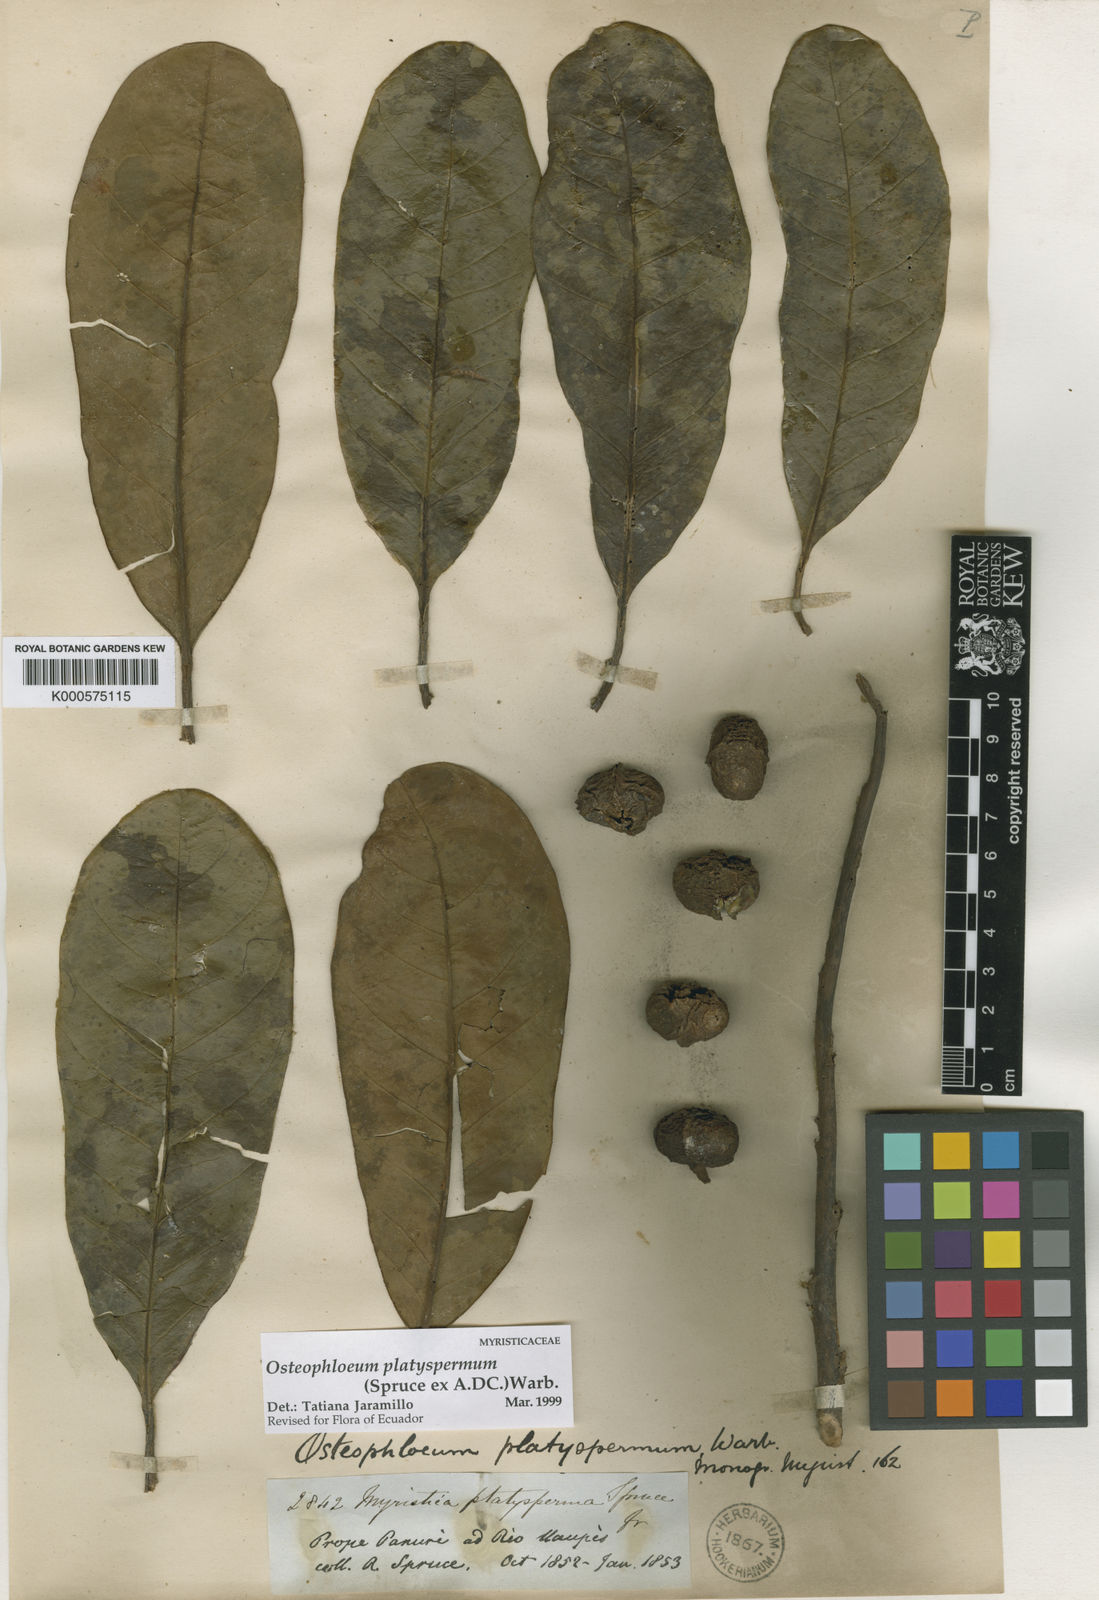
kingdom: Plantae
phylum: Tracheophyta
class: Magnoliopsida
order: Magnoliales
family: Myristicaceae
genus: Osteophloeum
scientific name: Osteophloeum platyspermum
